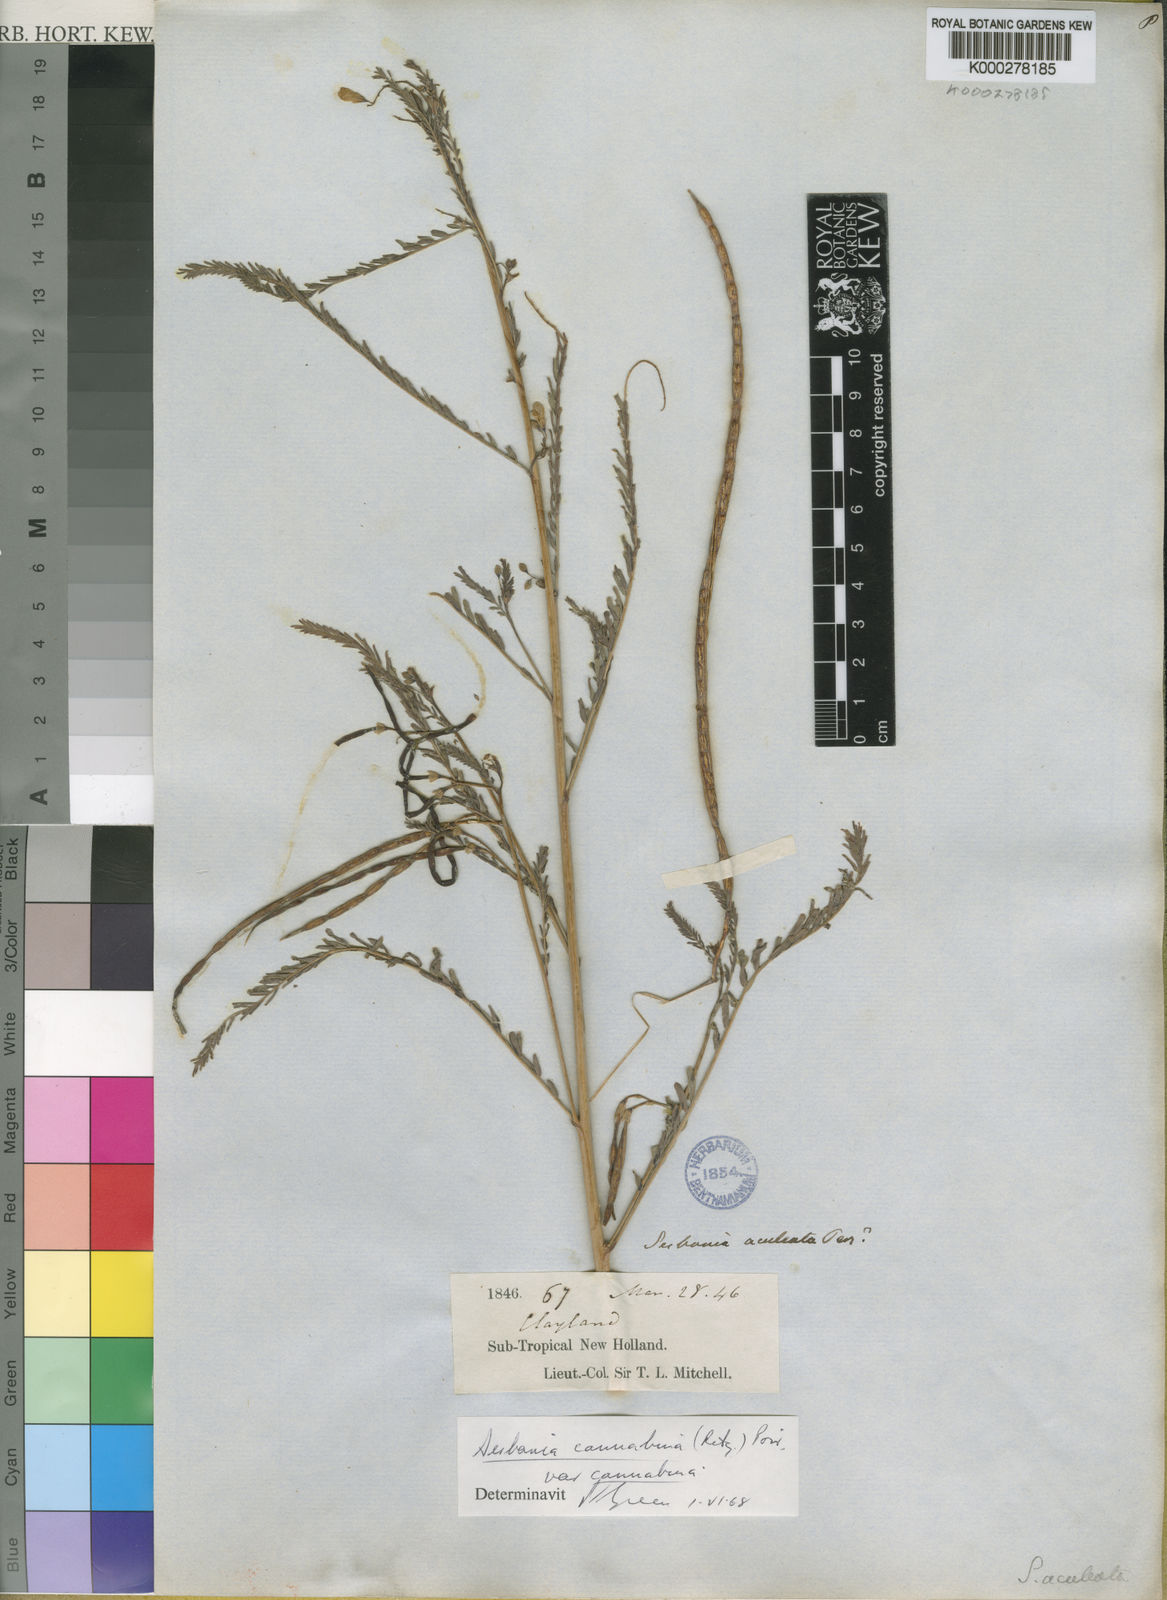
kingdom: Plantae
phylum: Tracheophyta
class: Magnoliopsida
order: Fabales
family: Fabaceae
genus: Sesbania
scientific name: Sesbania cannabina
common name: Canicha
